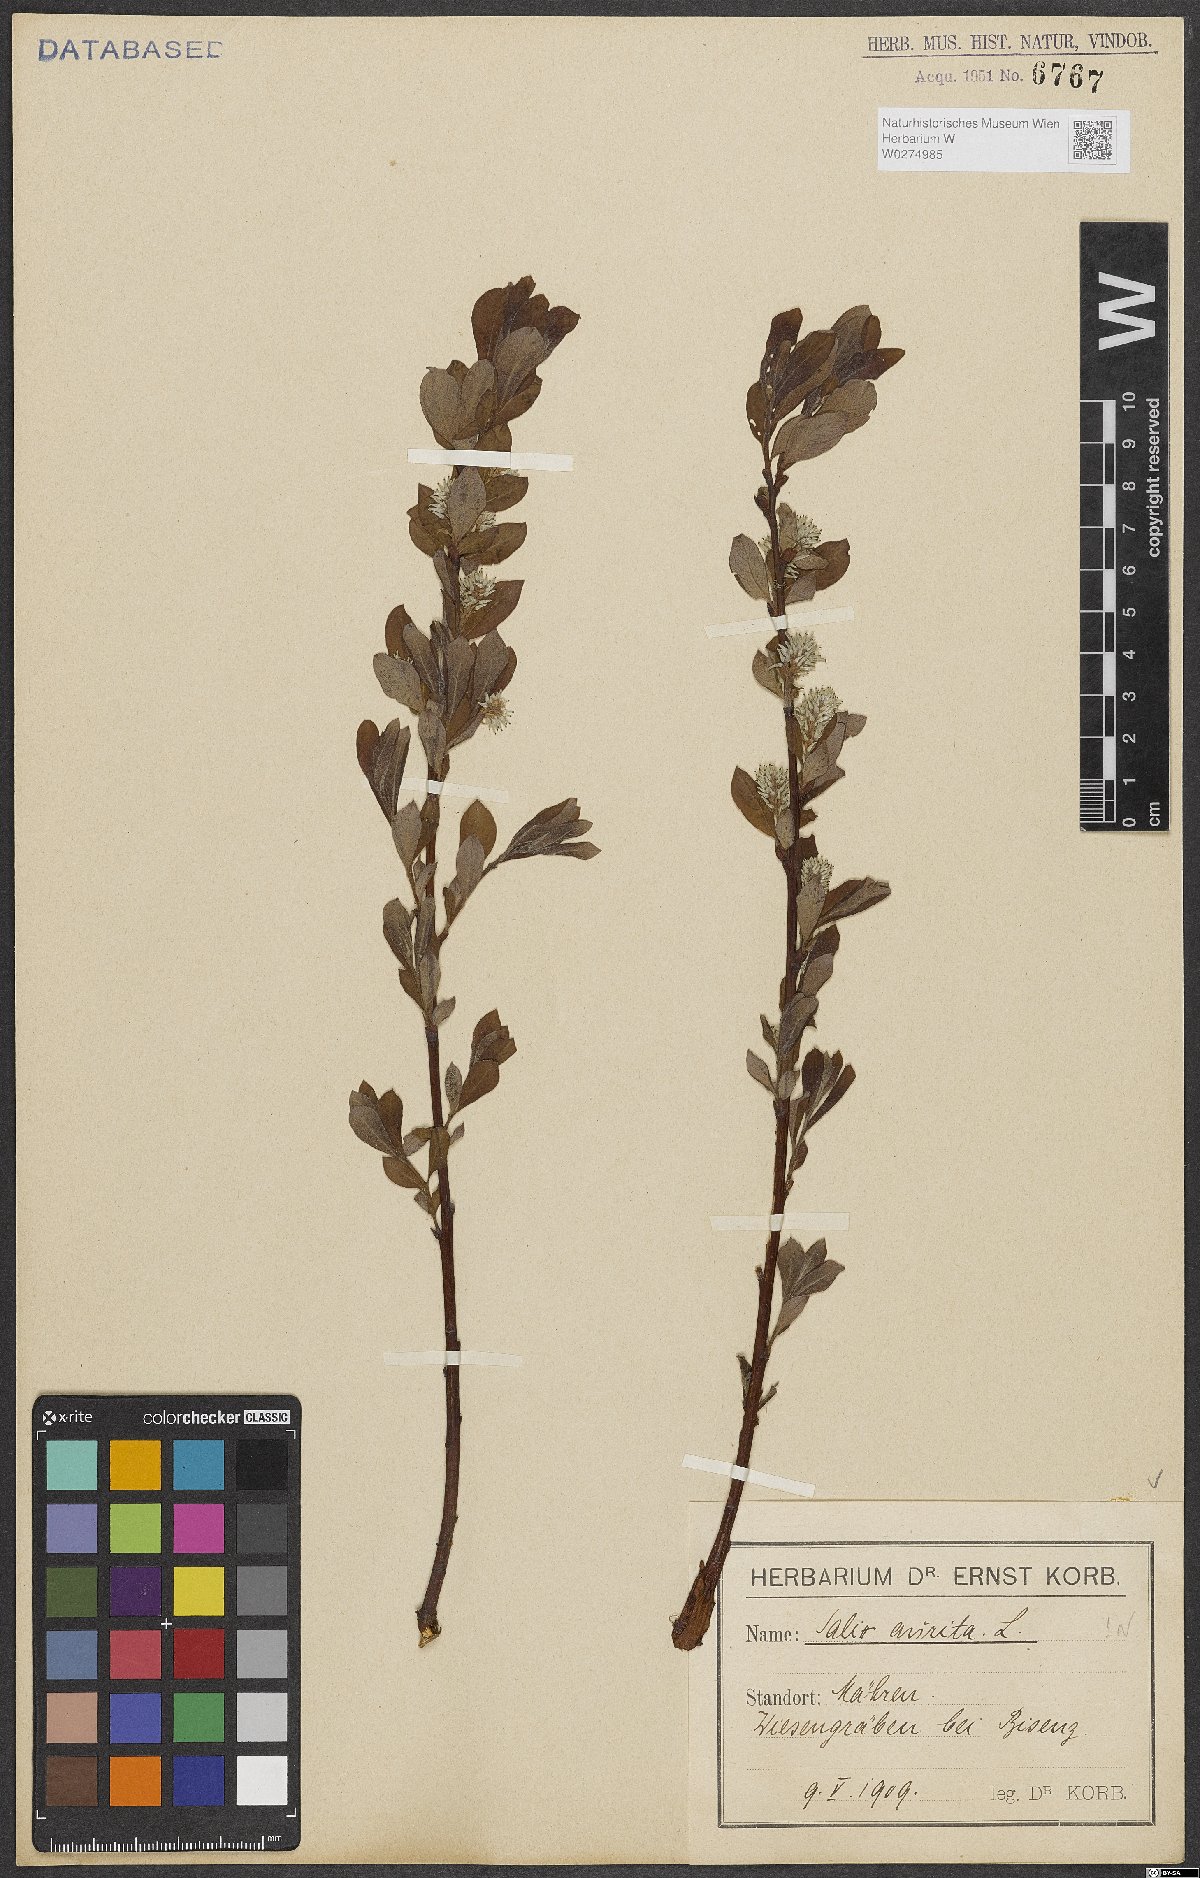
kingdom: Plantae
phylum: Tracheophyta
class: Magnoliopsida
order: Malpighiales
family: Salicaceae
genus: Salix
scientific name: Salix aurita
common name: Eared willow
